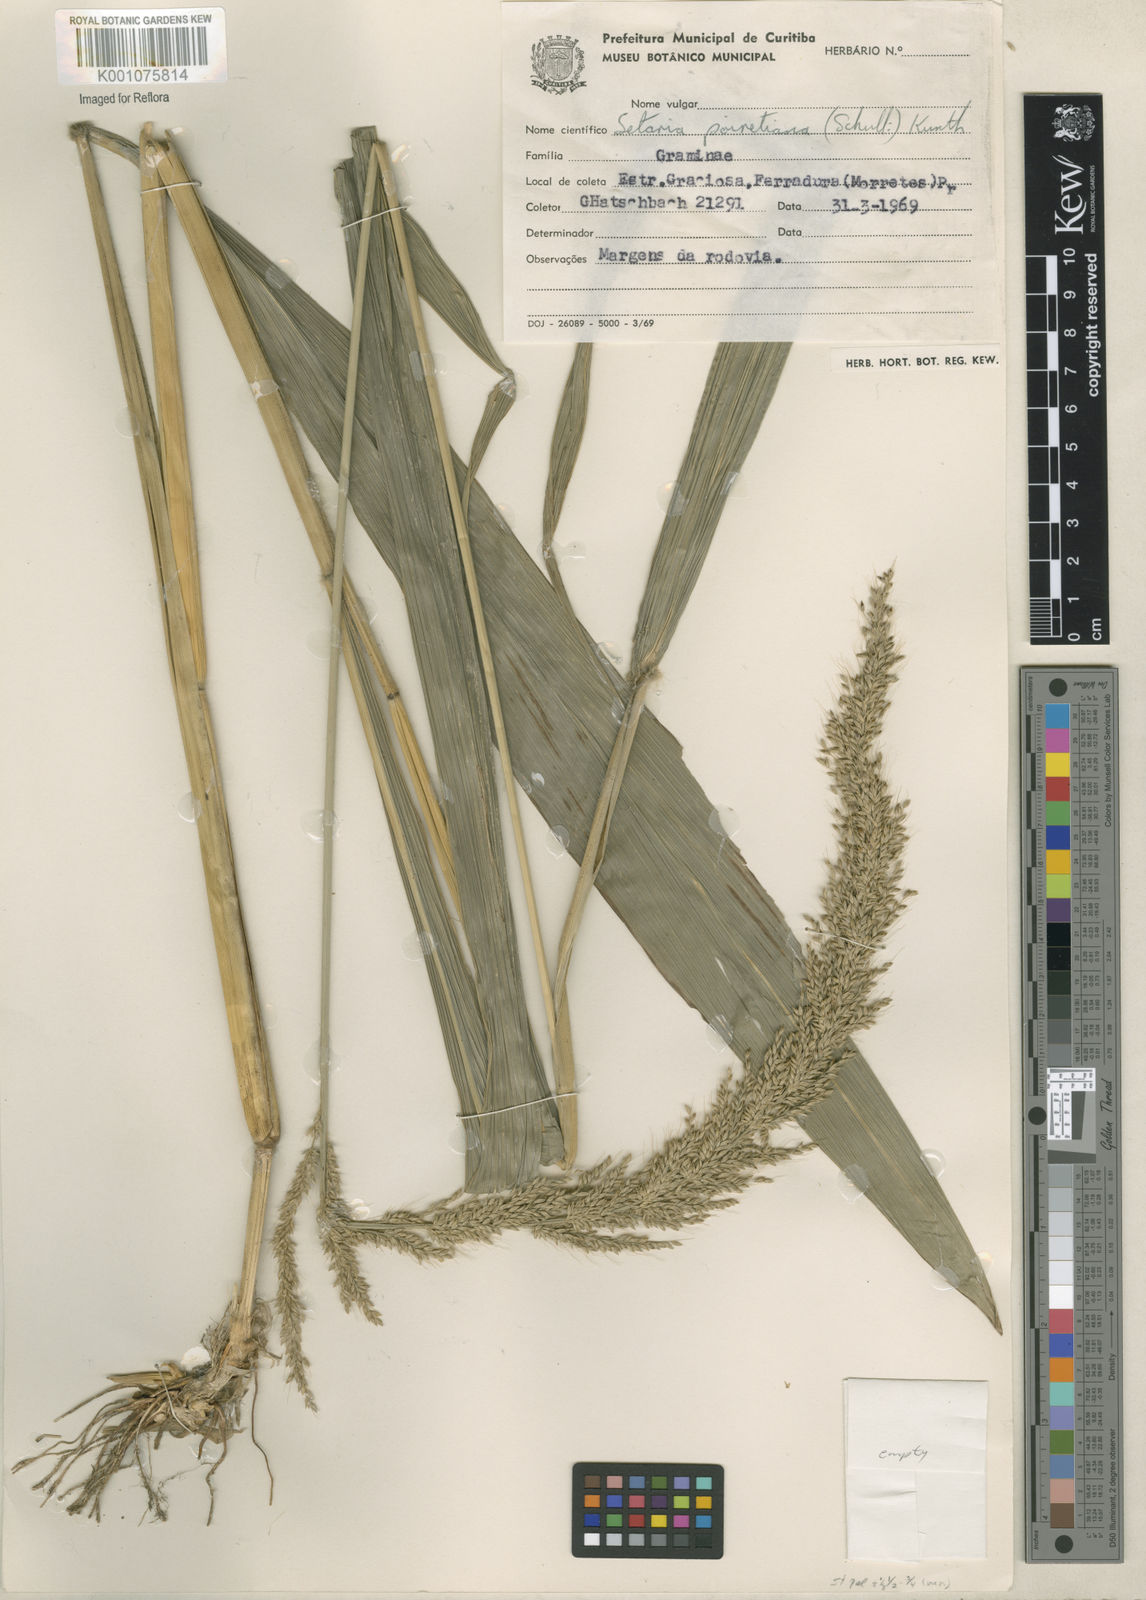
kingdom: Plantae
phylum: Tracheophyta
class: Liliopsida
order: Poales
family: Poaceae
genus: Setaria
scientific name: Setaria megaphylla
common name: Bigleaf bristlegrass
